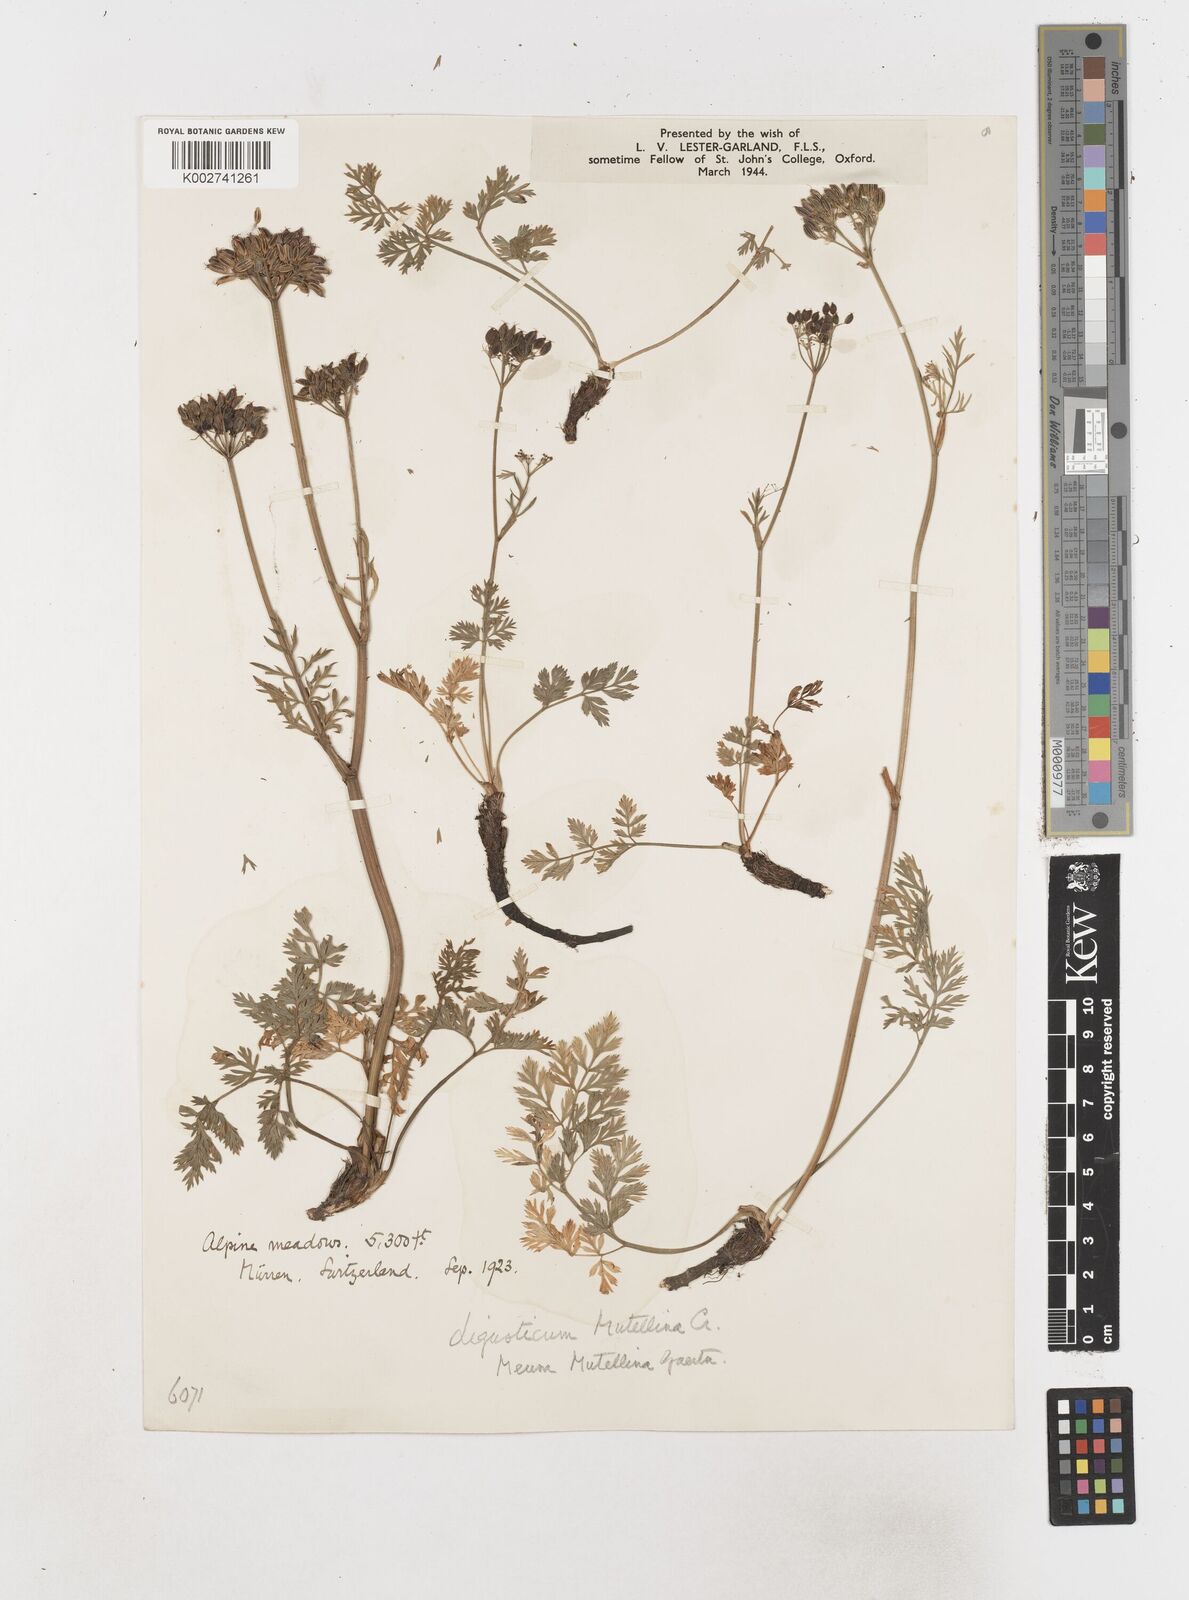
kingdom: Plantae
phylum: Tracheophyta
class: Magnoliopsida
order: Apiales
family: Apiaceae
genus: Mutellina
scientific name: Mutellina adonidifolia
